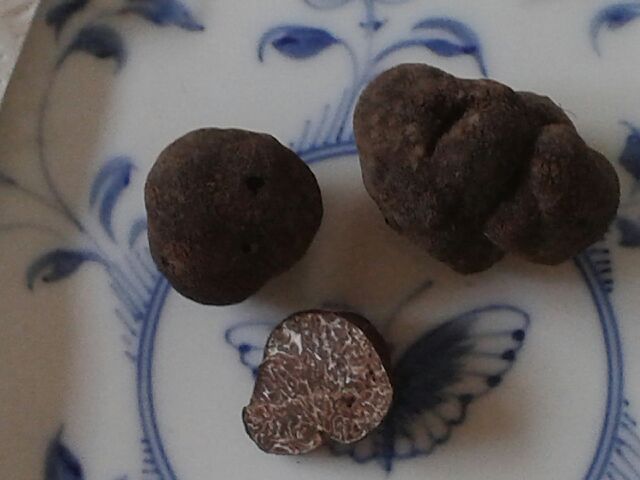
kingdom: Fungi
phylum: Ascomycota
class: Pezizomycetes
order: Pezizales
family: Tuberaceae
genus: Tuber
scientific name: Tuber macrosporum
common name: storsporet trøffel
